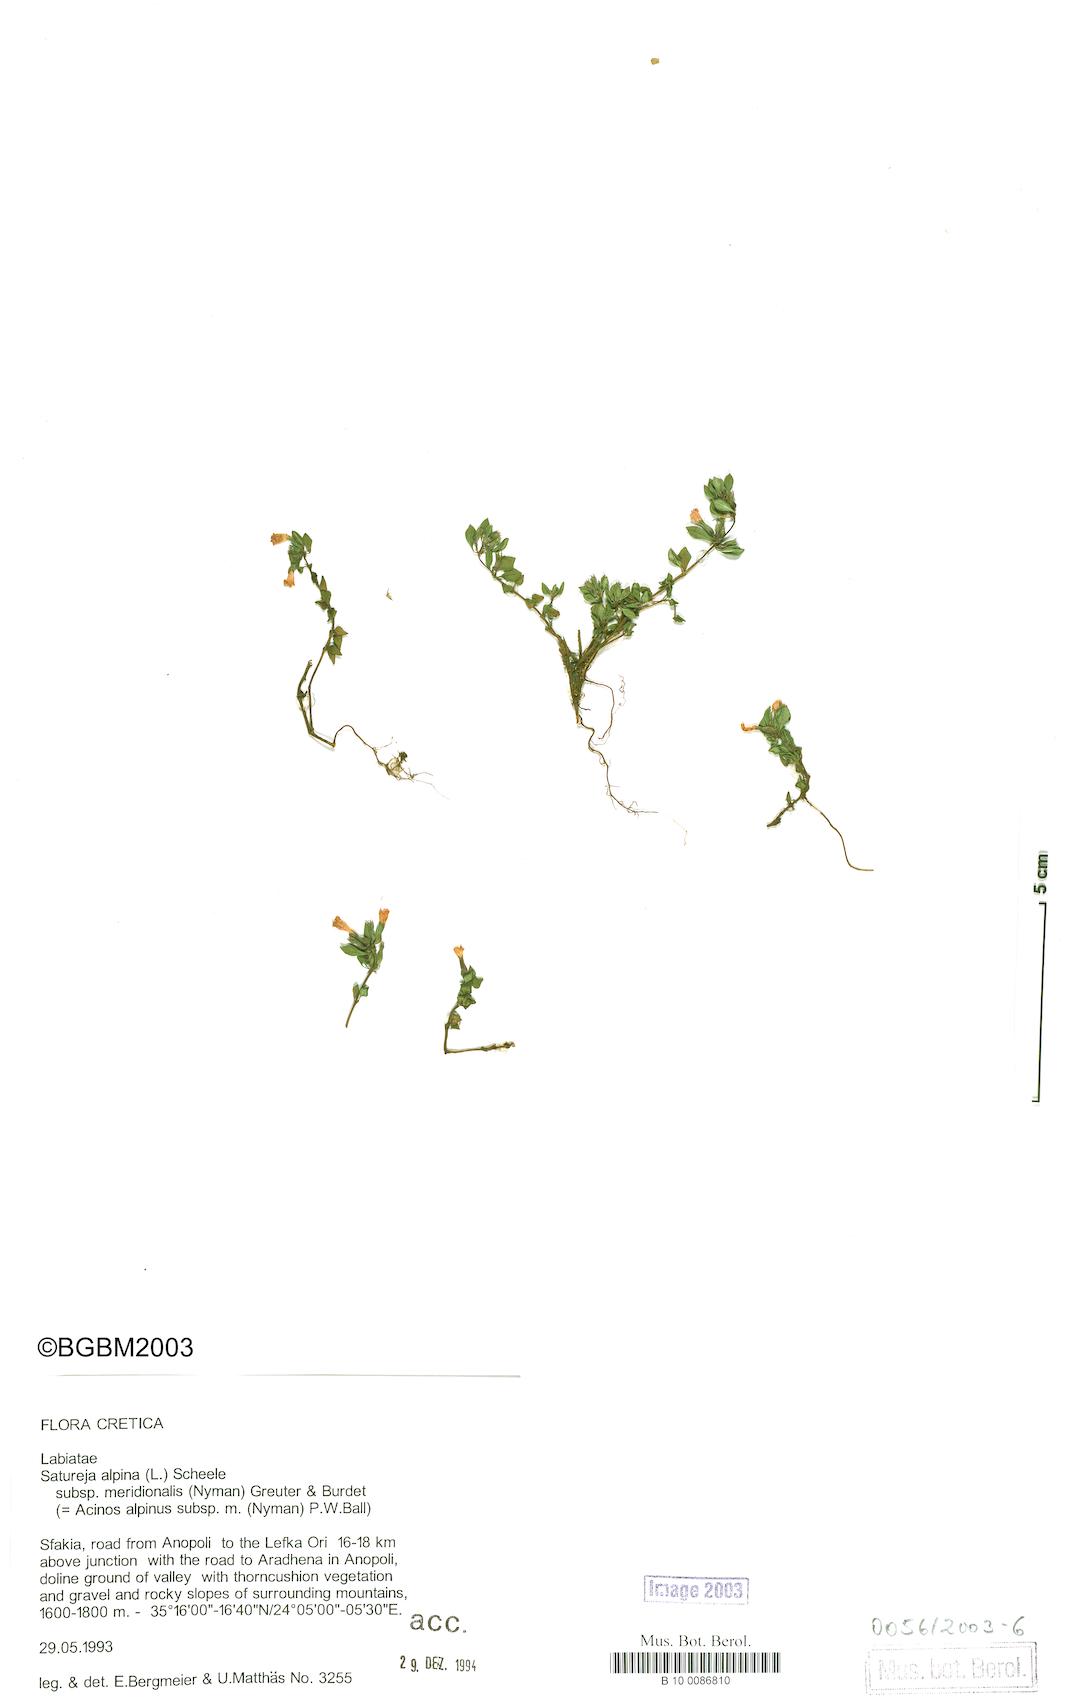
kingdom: Plantae
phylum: Tracheophyta
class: Magnoliopsida
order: Lamiales
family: Lamiaceae
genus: Clinopodium
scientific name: Clinopodium alpinum
